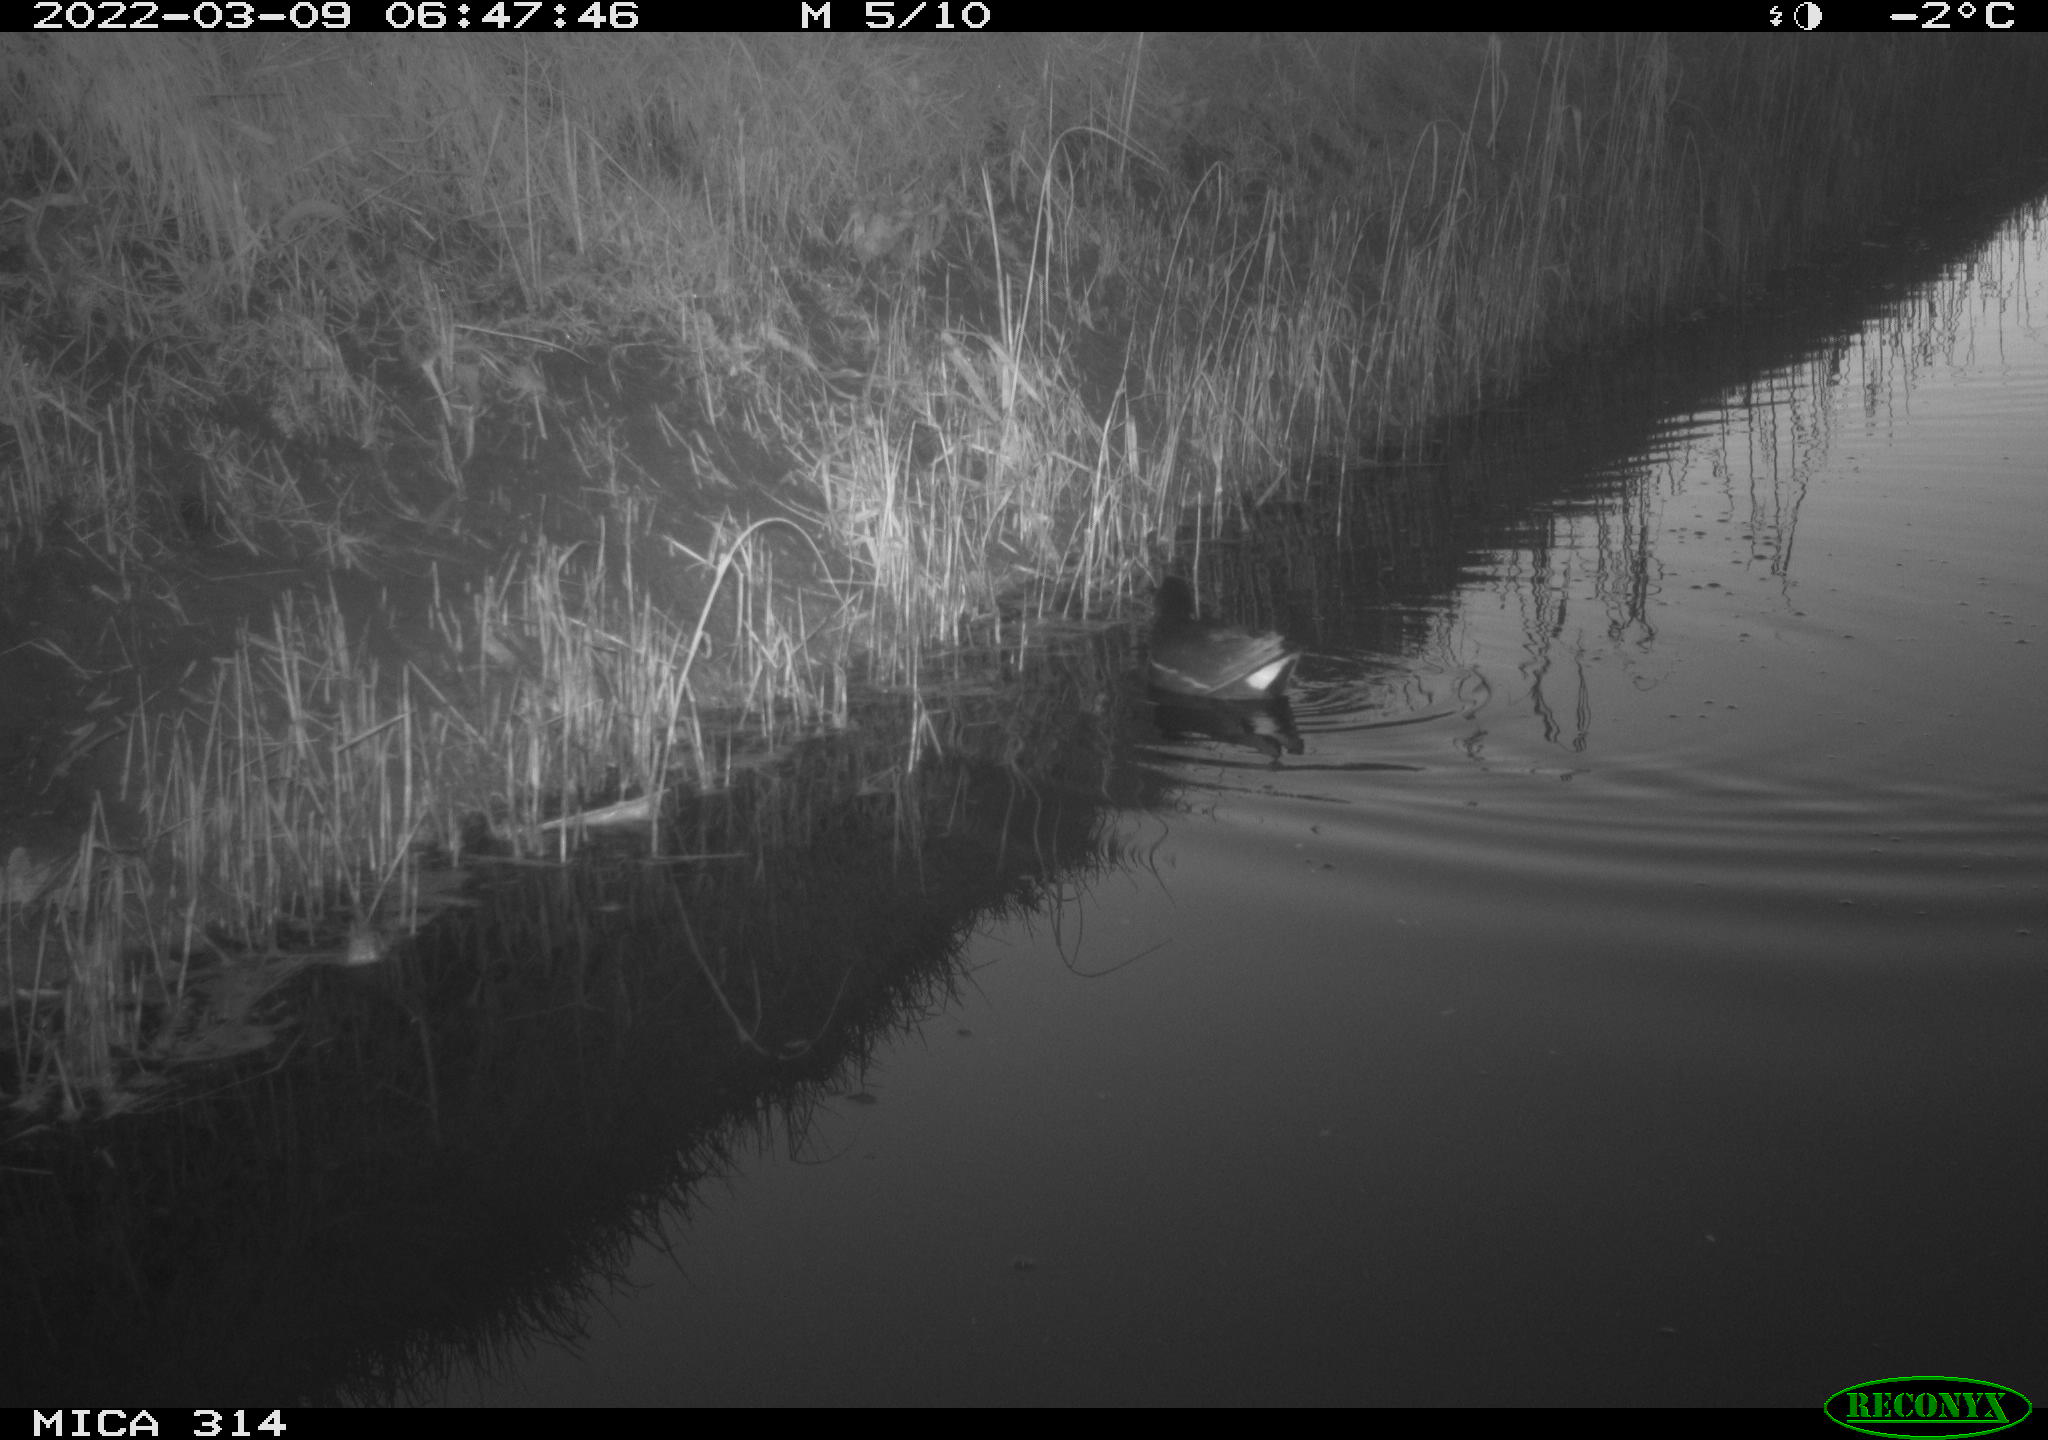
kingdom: Animalia
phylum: Chordata
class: Aves
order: Gruiformes
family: Rallidae
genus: Gallinula
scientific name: Gallinula chloropus
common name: Common moorhen
